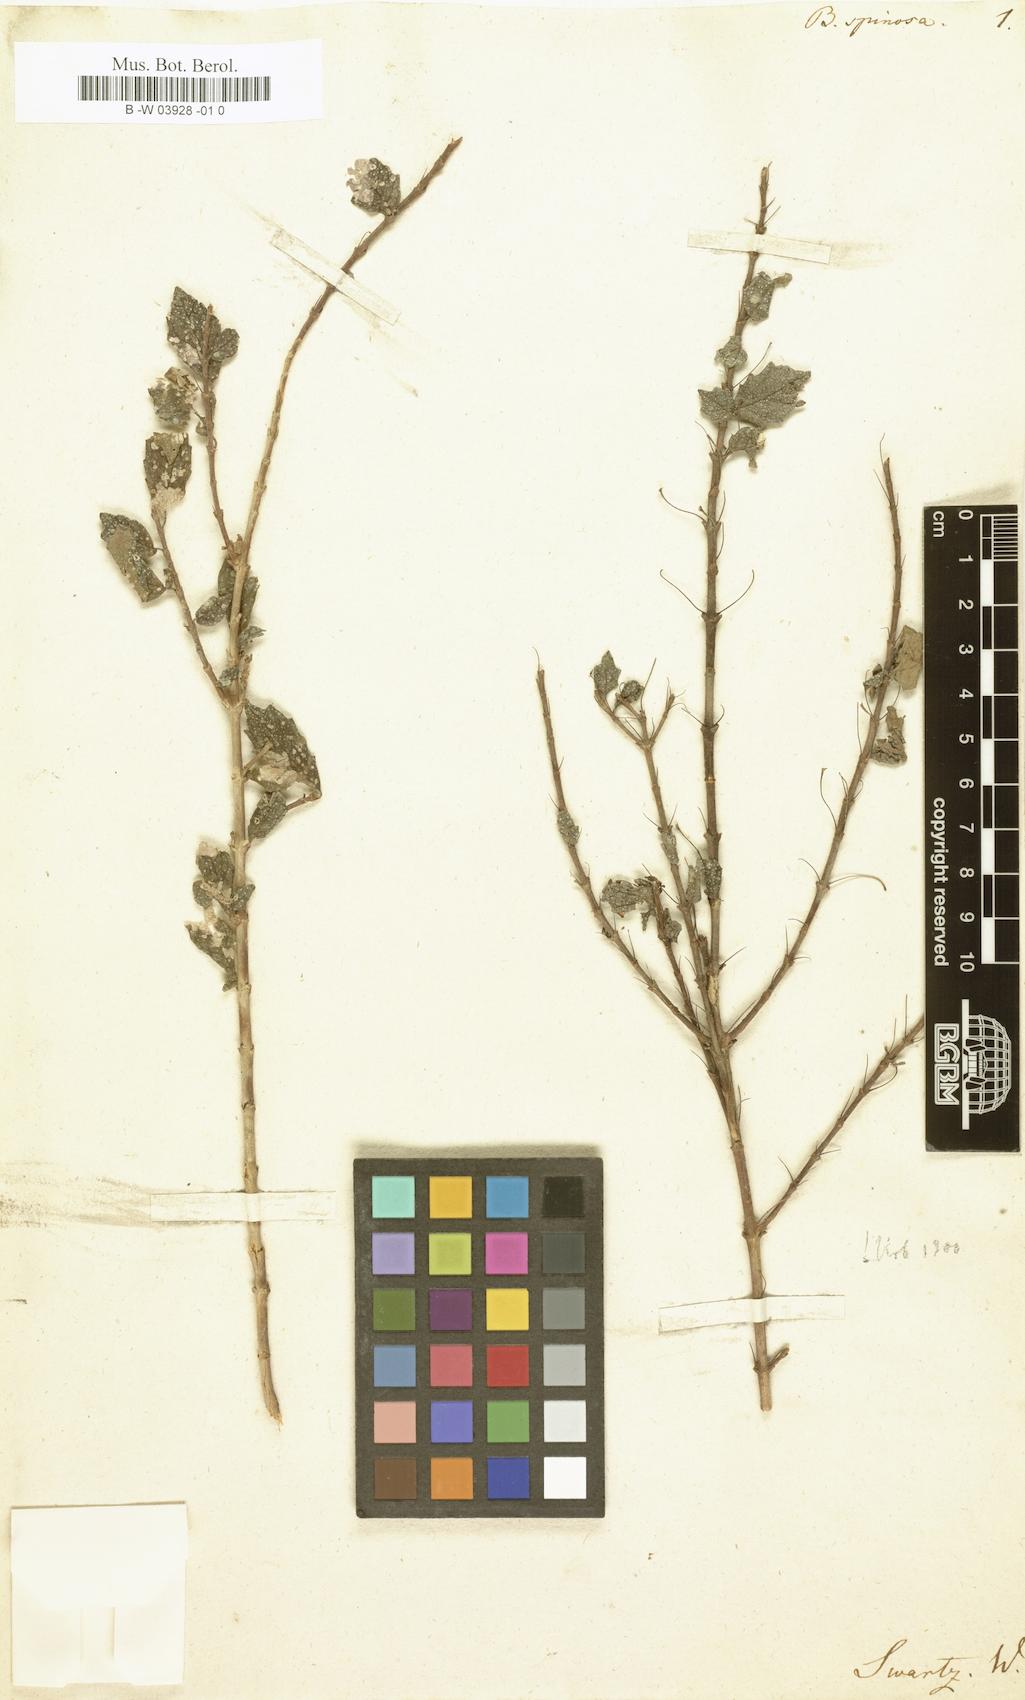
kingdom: Plantae
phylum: Tracheophyta
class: Magnoliopsida
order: Lamiales
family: Gesneriaceae
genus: Bellonia
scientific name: Bellonia spinosa
